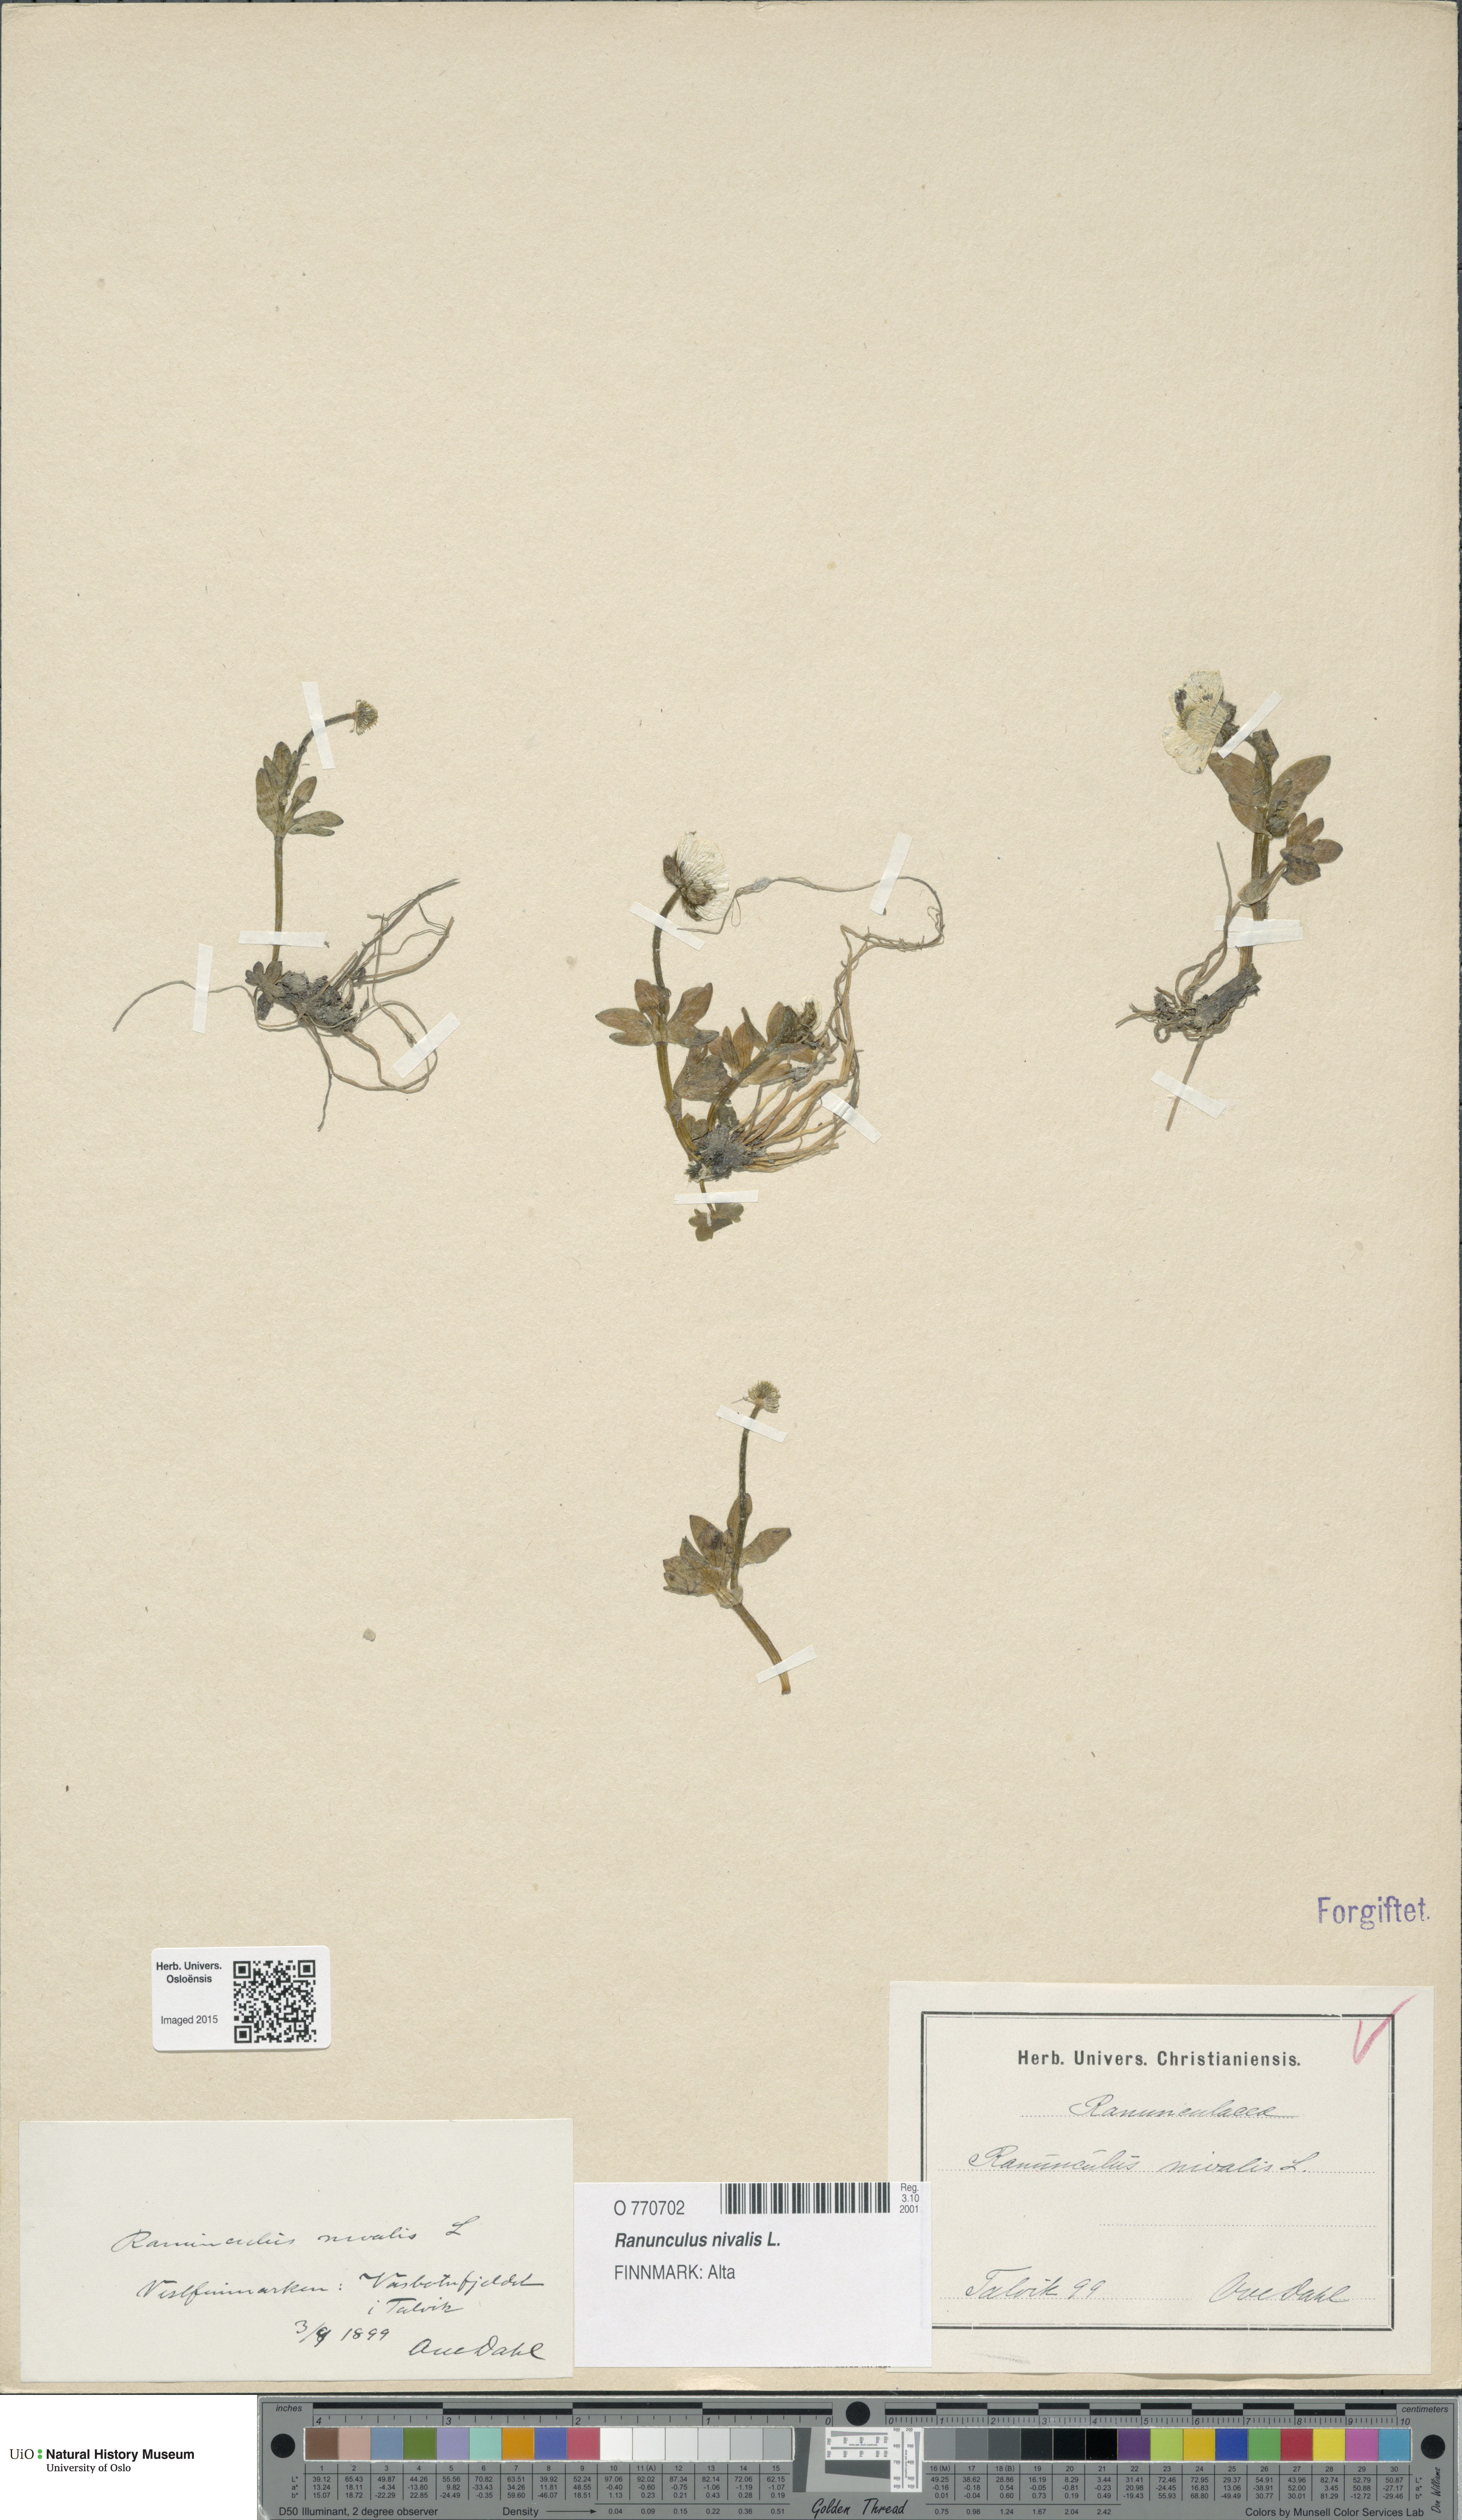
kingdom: Plantae
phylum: Tracheophyta
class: Magnoliopsida
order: Ranunculales
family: Ranunculaceae
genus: Ranunculus
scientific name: Ranunculus nivalis
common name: Snow buttercup
